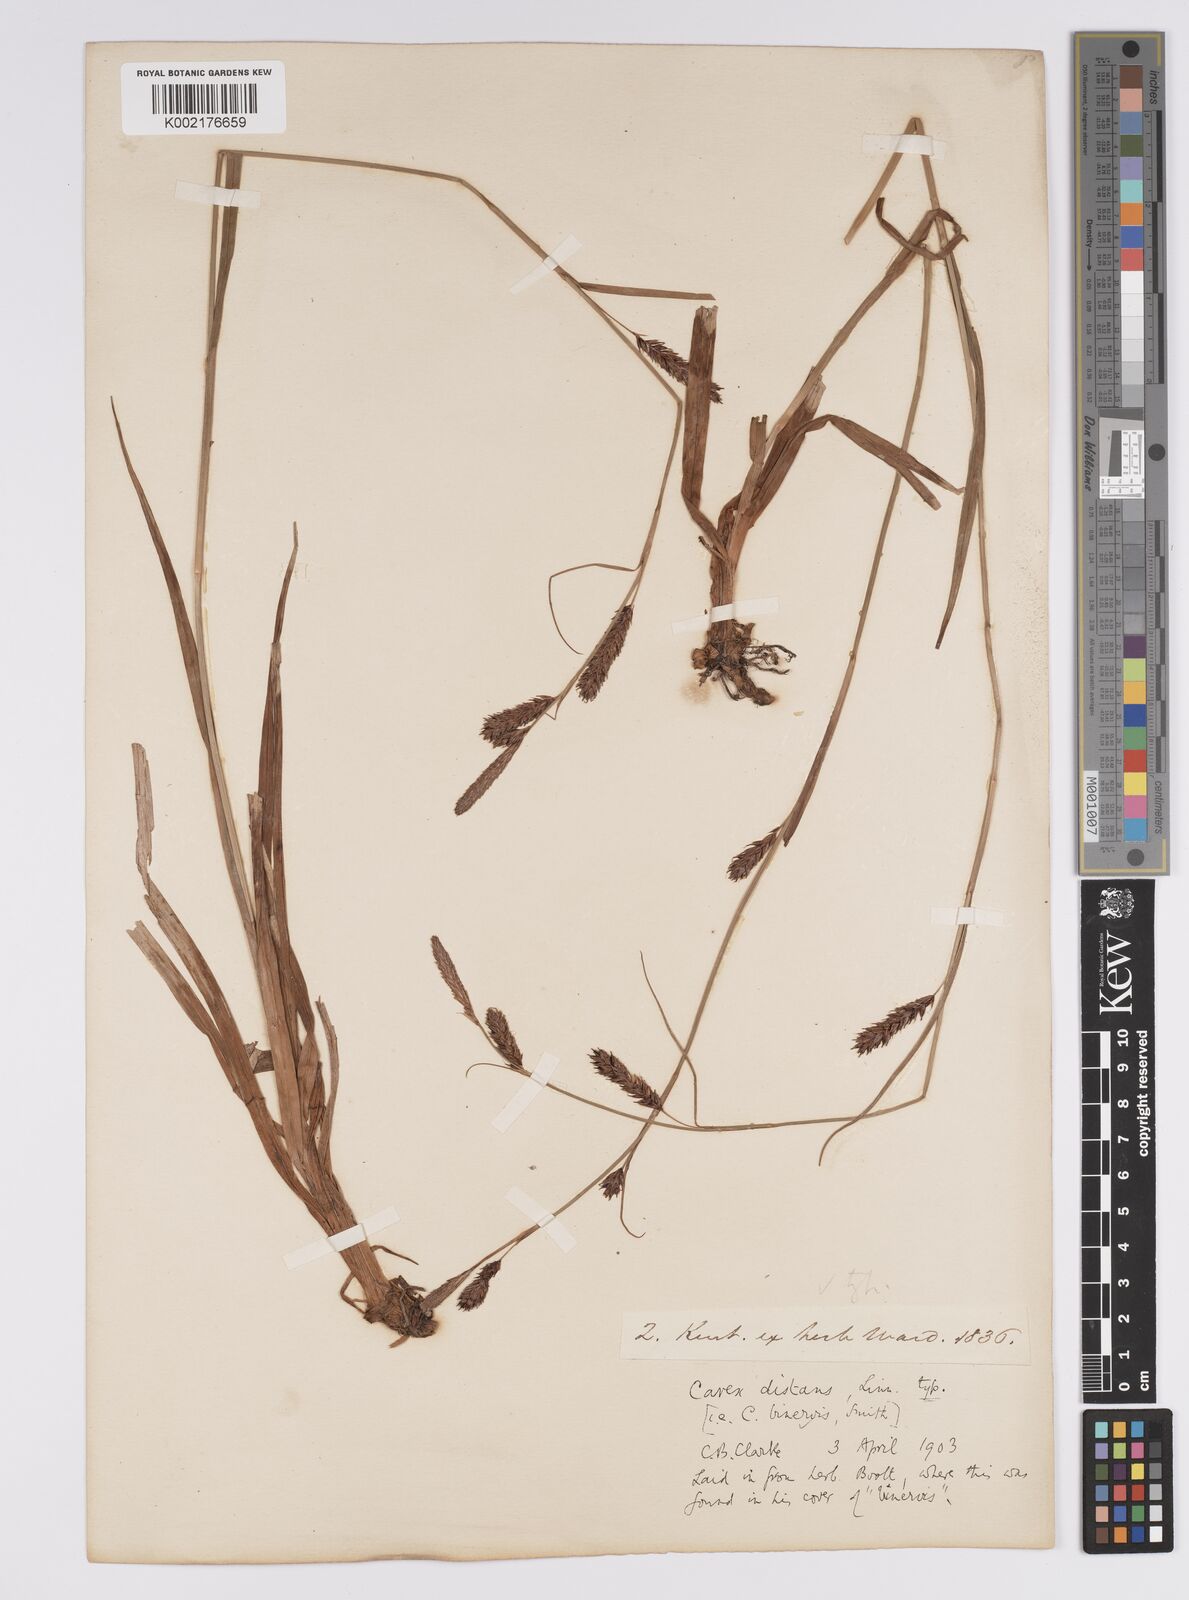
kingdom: Plantae
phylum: Tracheophyta
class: Liliopsida
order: Poales
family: Cyperaceae
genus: Carex
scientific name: Carex binervis
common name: Green-ribbed sedge
